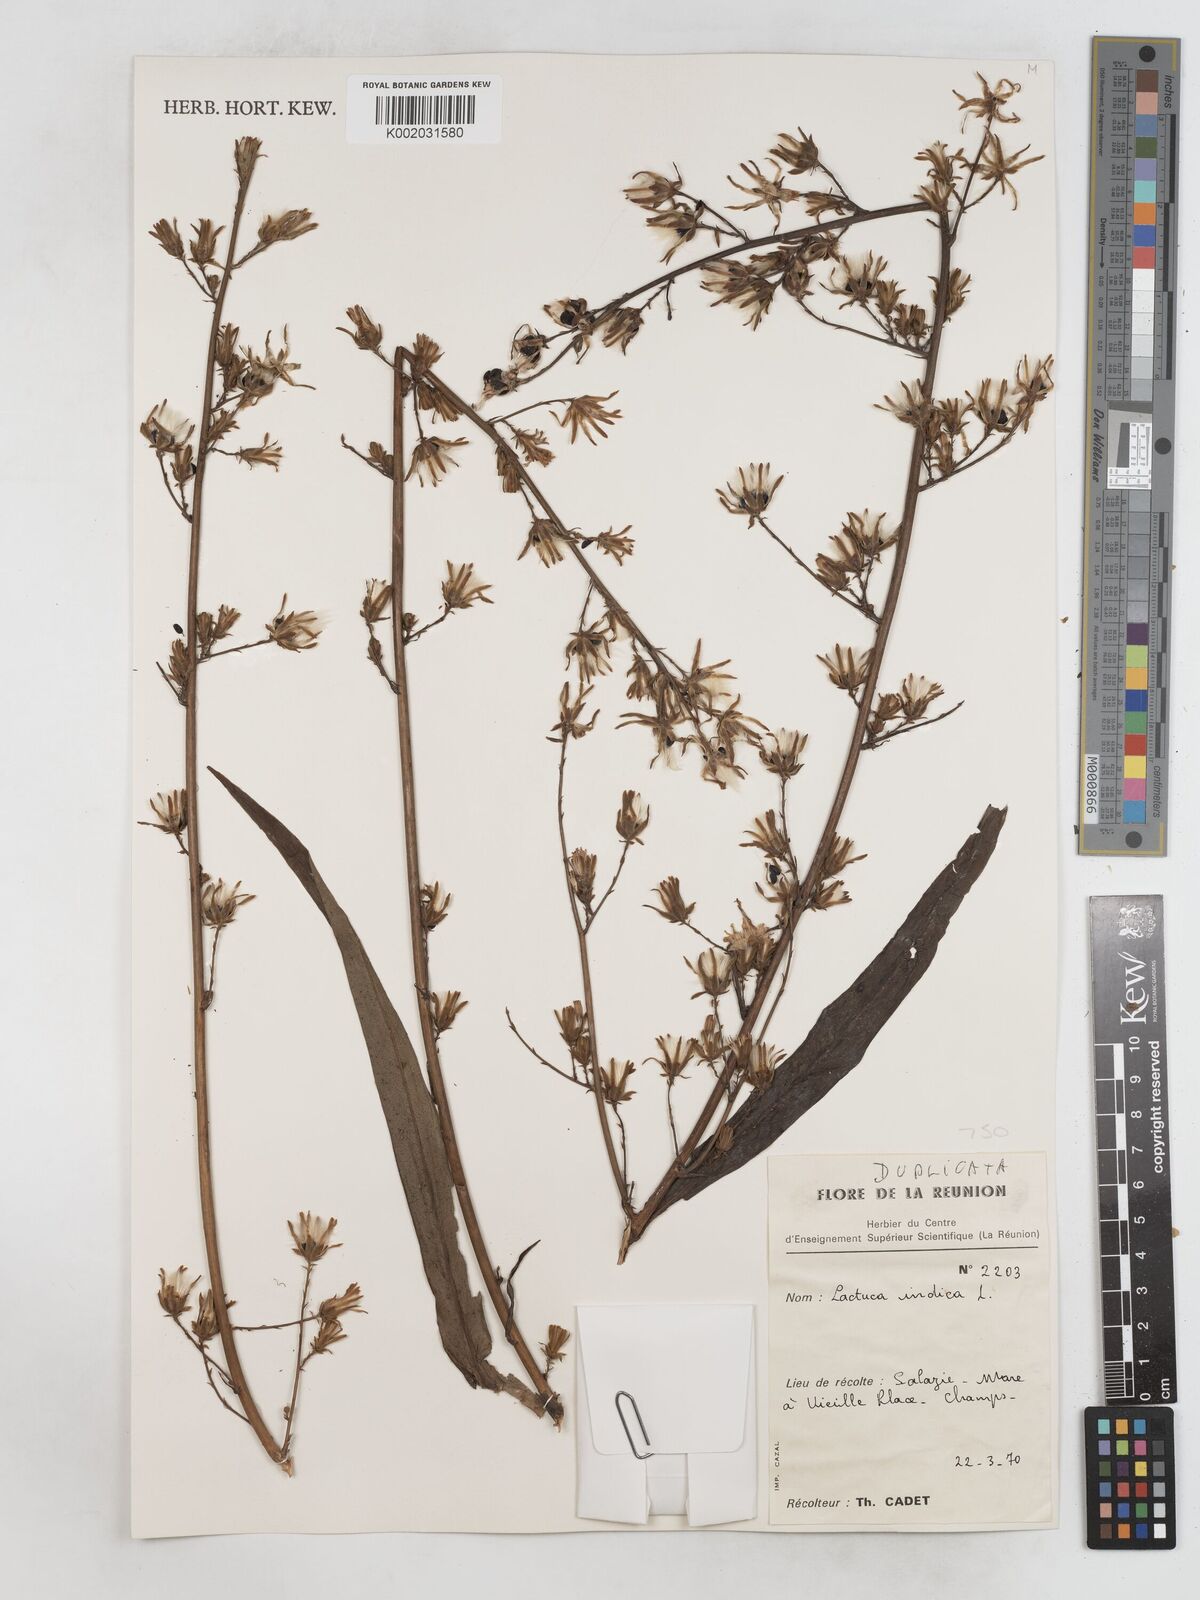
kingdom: Plantae
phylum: Tracheophyta
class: Magnoliopsida
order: Asterales
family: Asteraceae
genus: Lactuca
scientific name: Lactuca indica
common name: Wild lettuce
